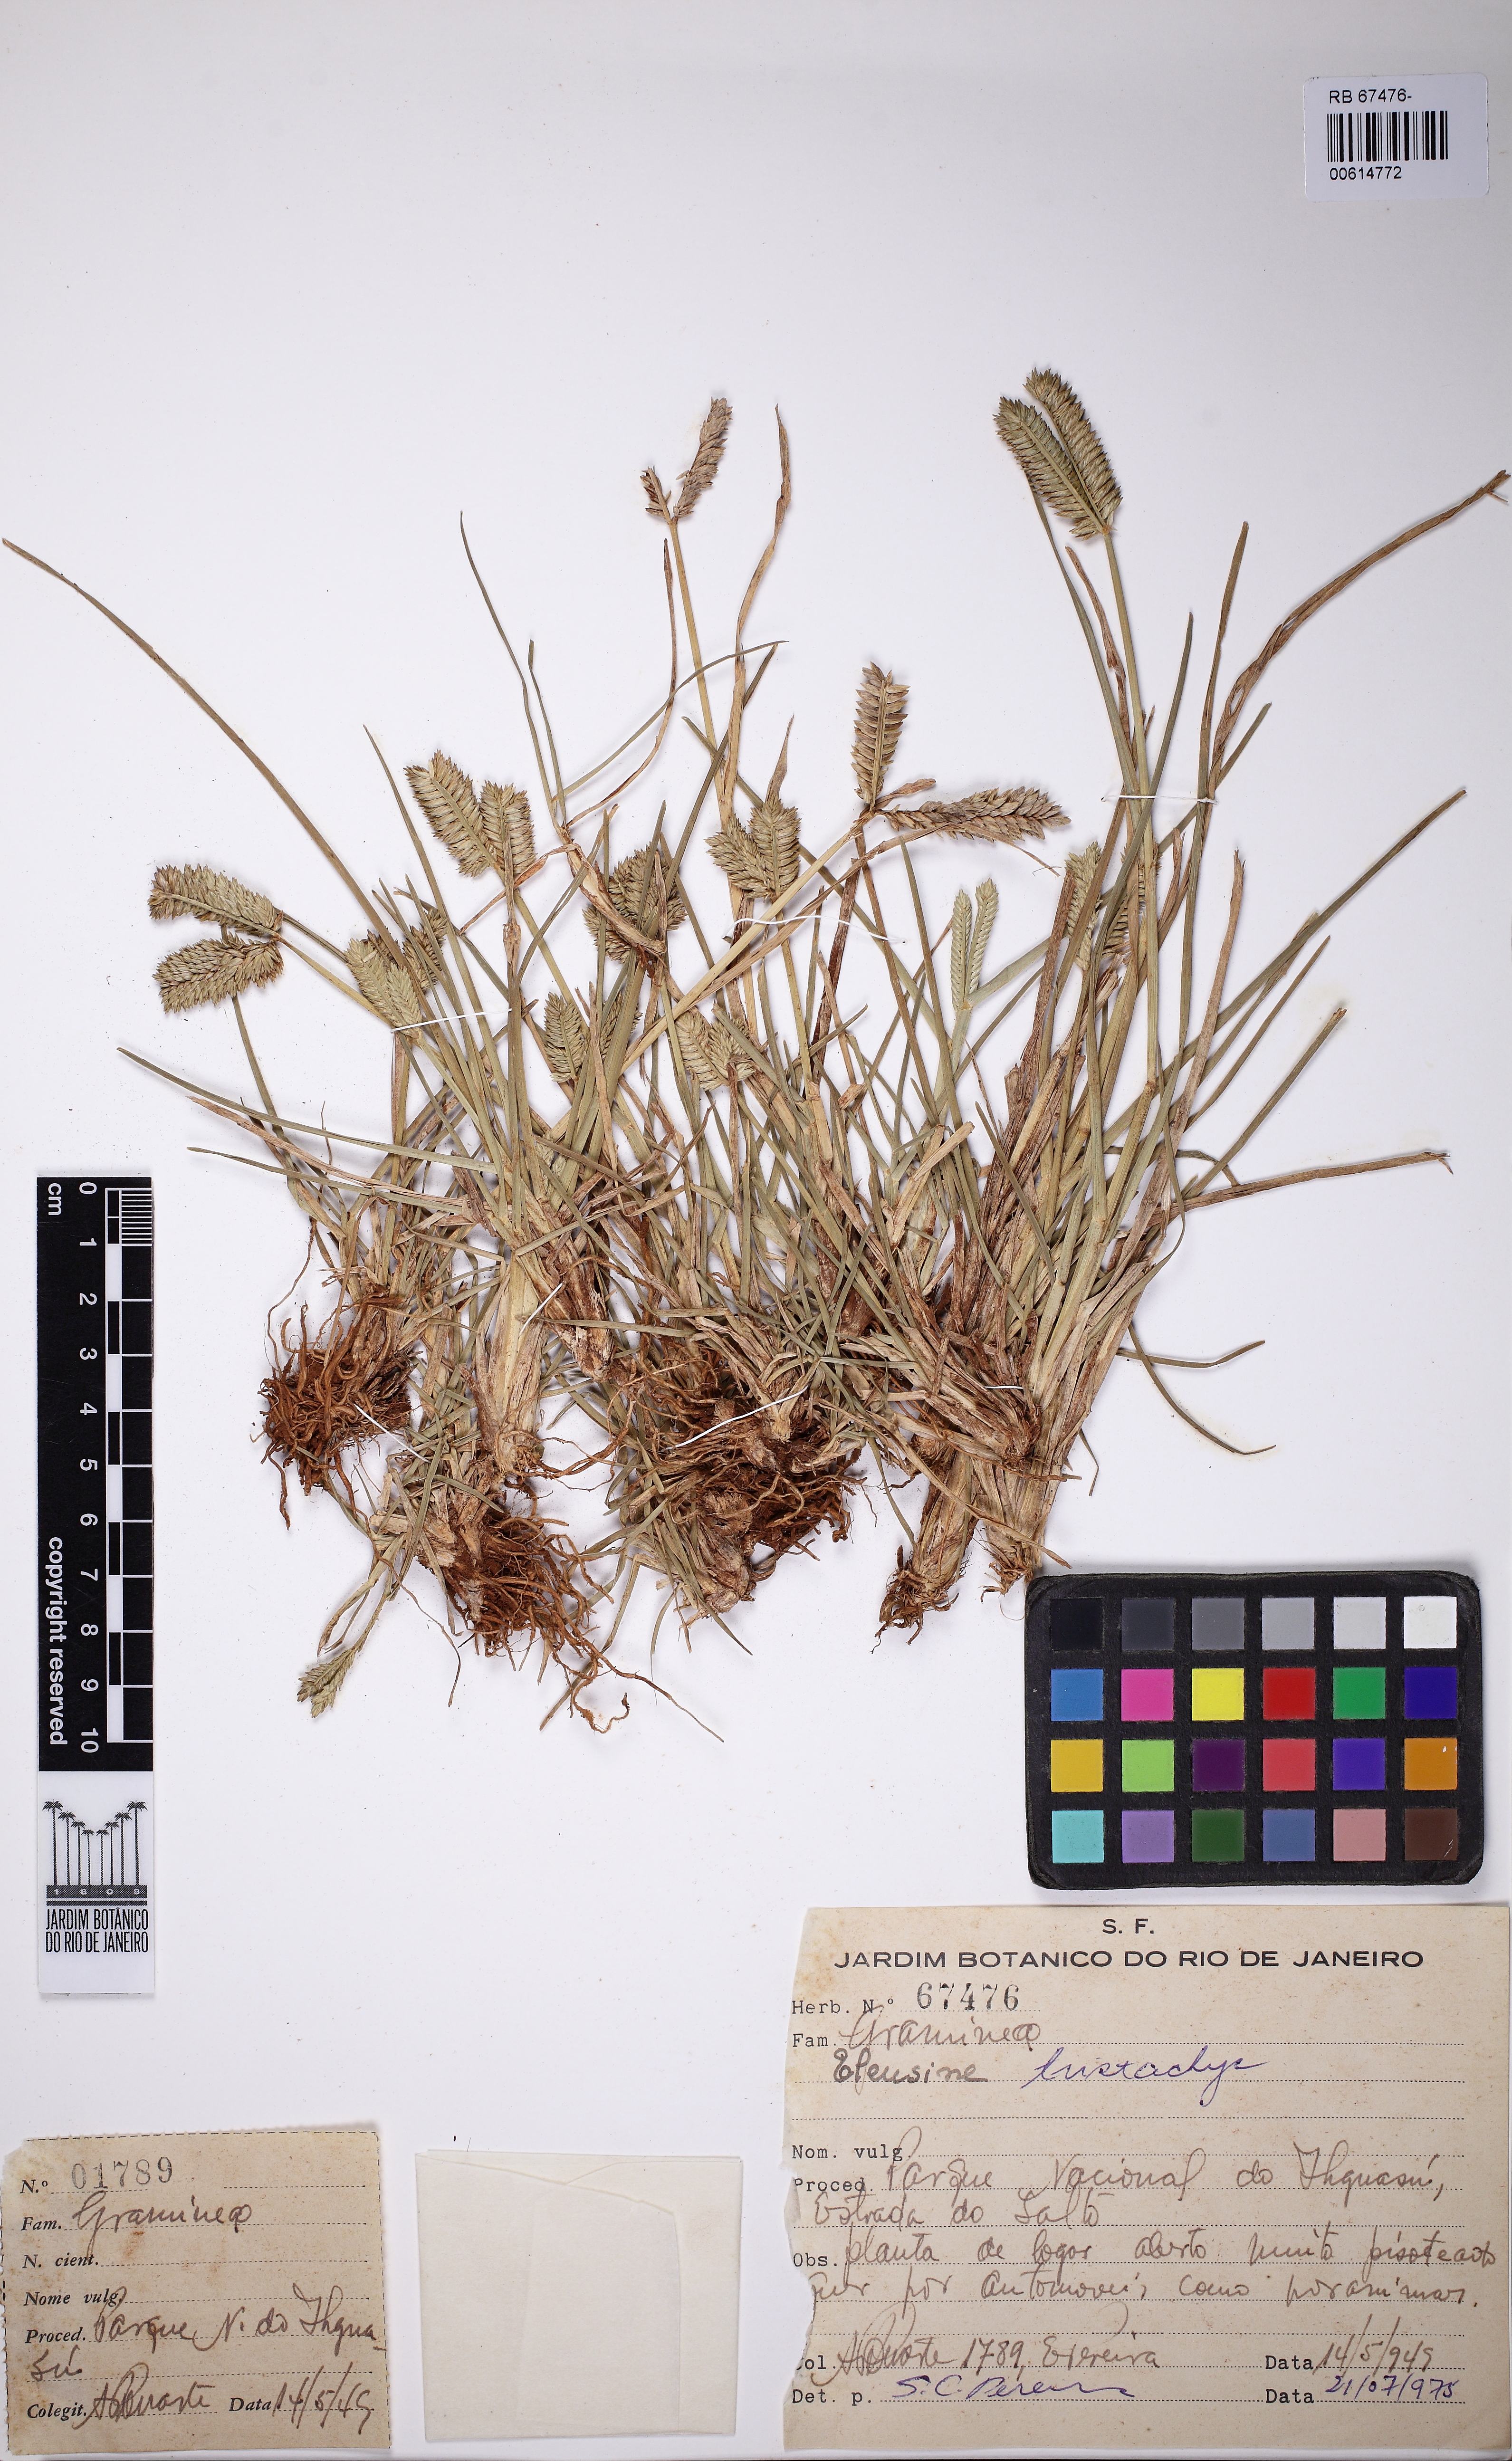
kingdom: Plantae
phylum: Tracheophyta
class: Liliopsida
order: Poales
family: Poaceae
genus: Eleusine
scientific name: Eleusine tristachya
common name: American yard-grass
